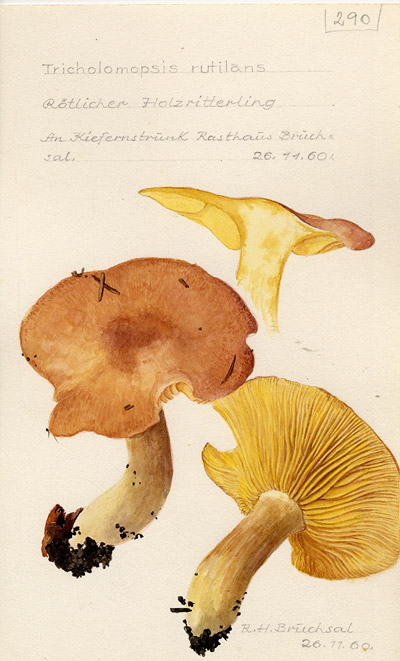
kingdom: Fungi
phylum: Basidiomycota
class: Agaricomycetes
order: Agaricales
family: Tricholomataceae
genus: Tricholomopsis
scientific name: Tricholomopsis rutilans
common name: Plums and custard
